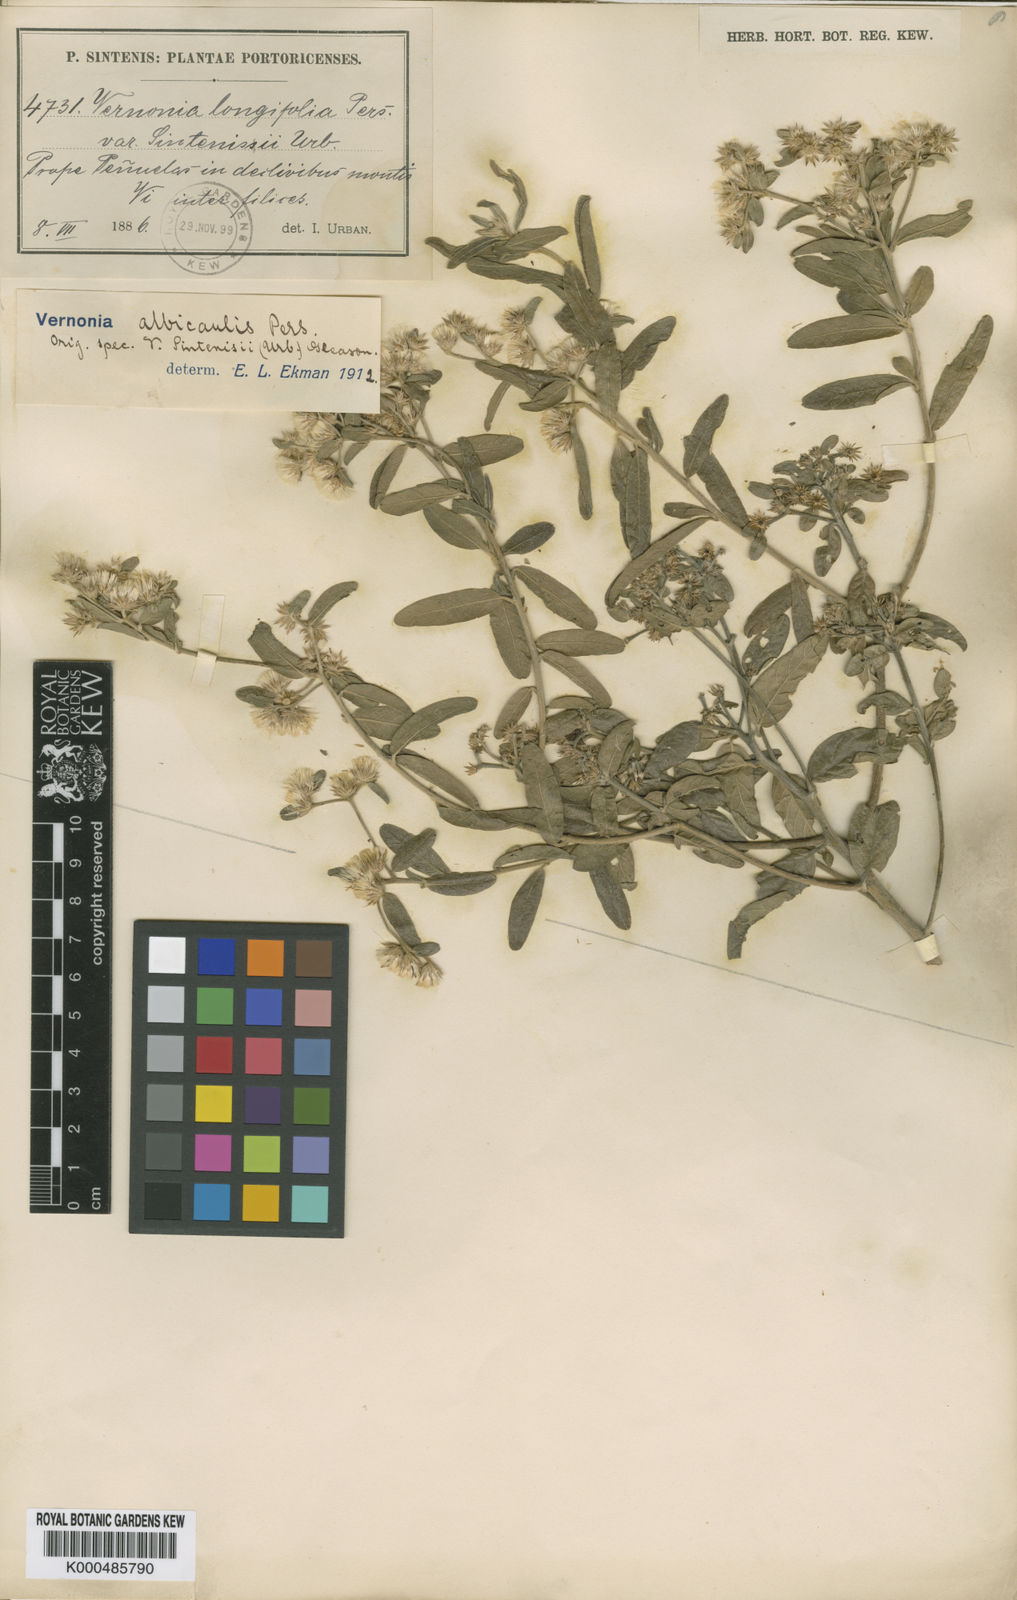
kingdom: Plantae
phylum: Tracheophyta
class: Magnoliopsida
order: Asterales
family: Asteraceae
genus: Lepidaploa
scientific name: Lepidaploa glabra
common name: Santa maria
